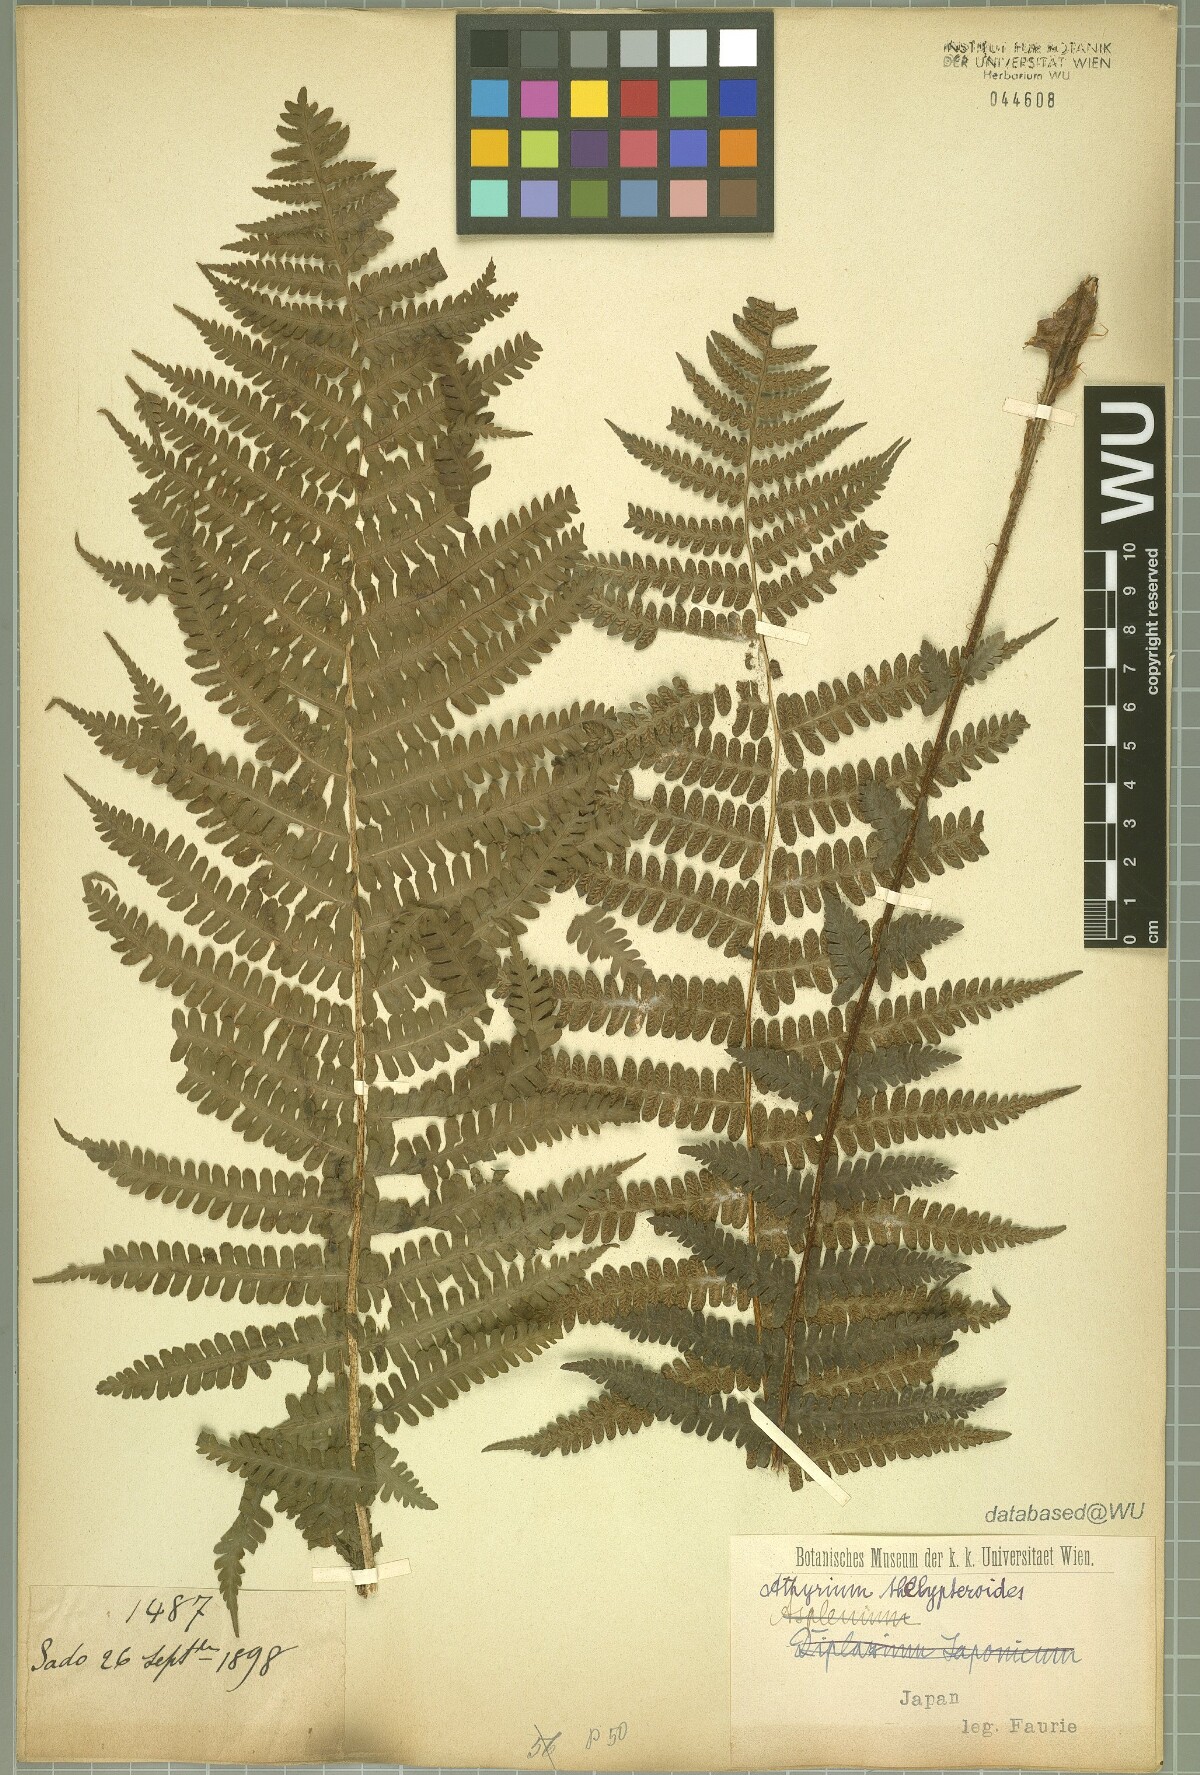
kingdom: Plantae
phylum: Tracheophyta
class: Polypodiopsida
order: Polypodiales
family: Athyriaceae
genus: Deparia
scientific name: Deparia acrostichoides
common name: Silver false spleenwort
